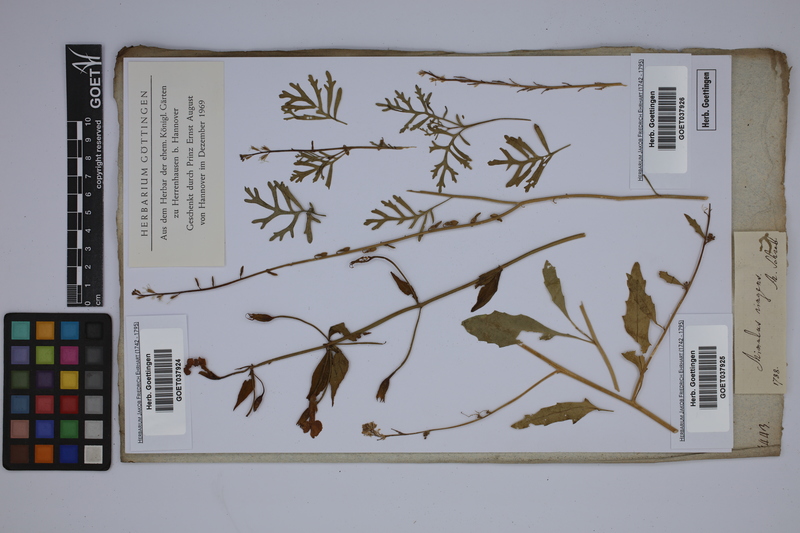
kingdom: Plantae
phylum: Tracheophyta
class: Magnoliopsida
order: Brassicales
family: Resedaceae
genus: Reseda
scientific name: Reseda lutea
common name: Wild mignonette
